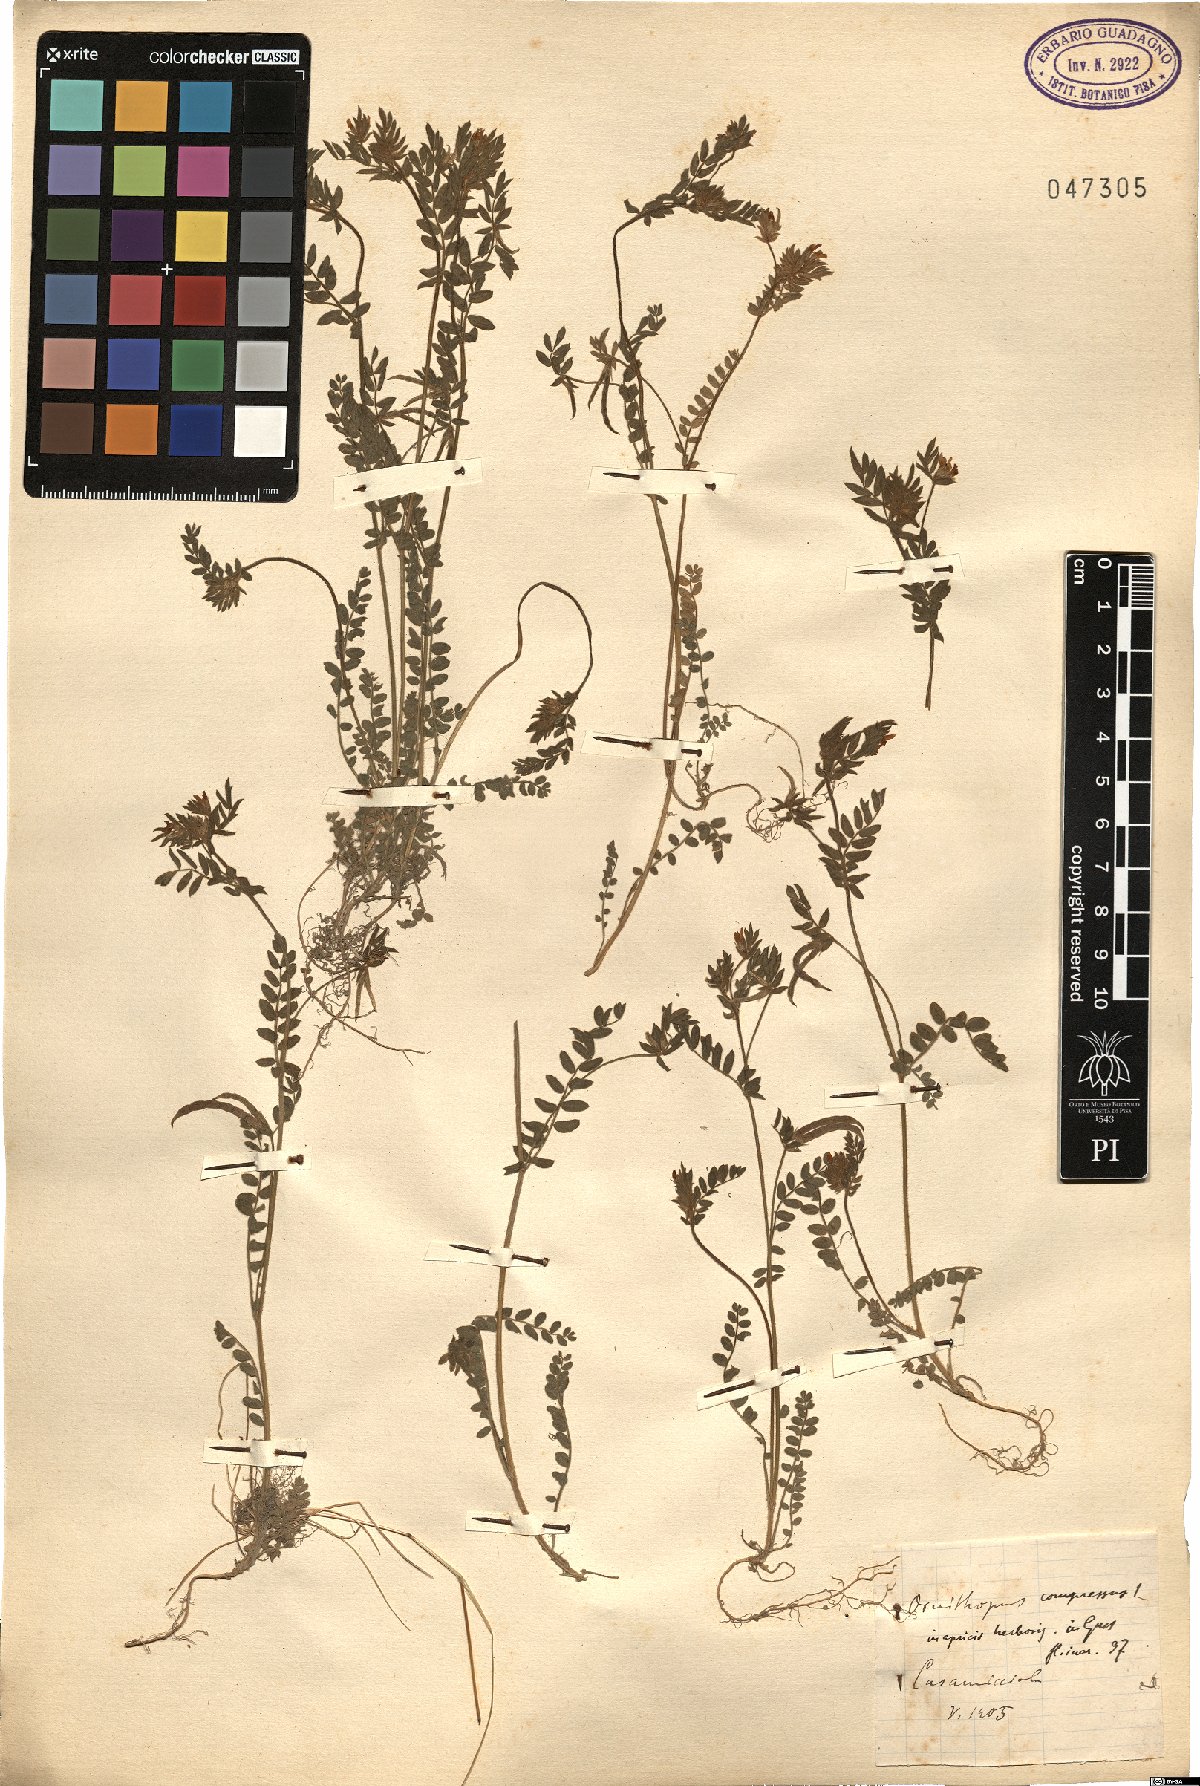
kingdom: Plantae
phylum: Tracheophyta
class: Magnoliopsida
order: Fabales
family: Fabaceae
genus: Ornithopus
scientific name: Ornithopus compressus
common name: Yellow serradella
